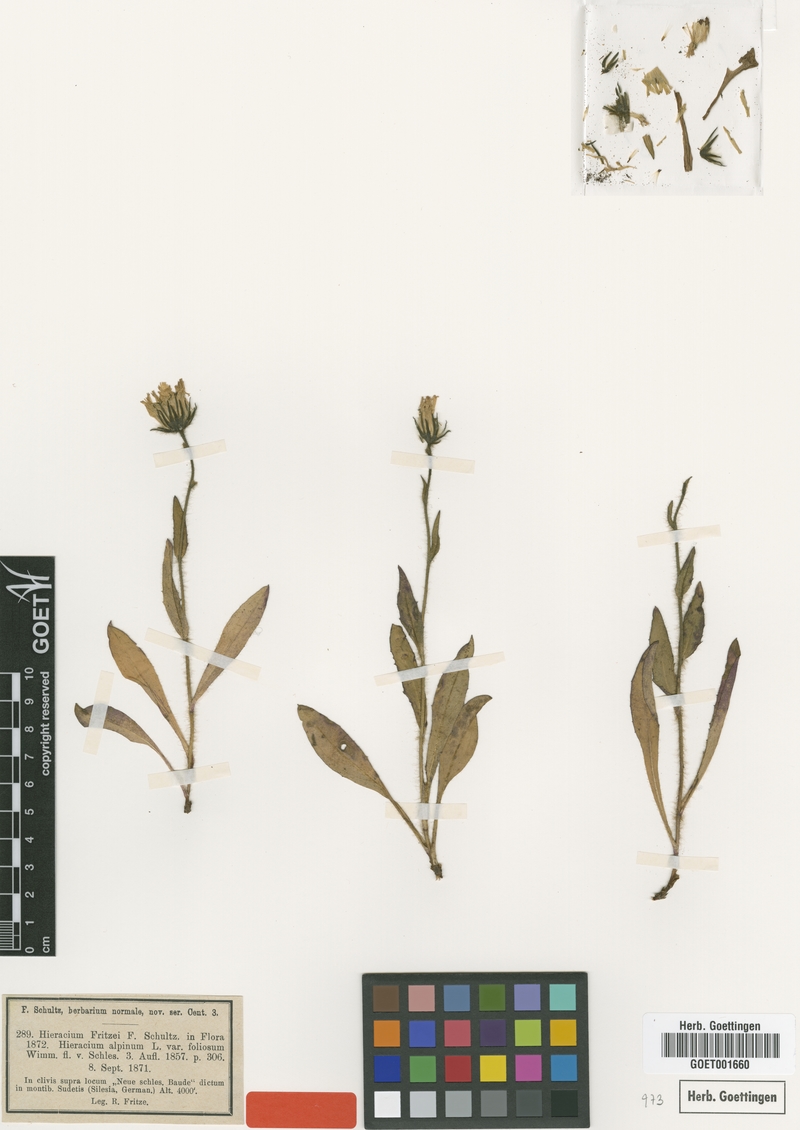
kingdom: Plantae
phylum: Tracheophyta
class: Magnoliopsida
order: Asterales
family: Asteraceae
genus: Hieracium
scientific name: Hieracium fritzei
